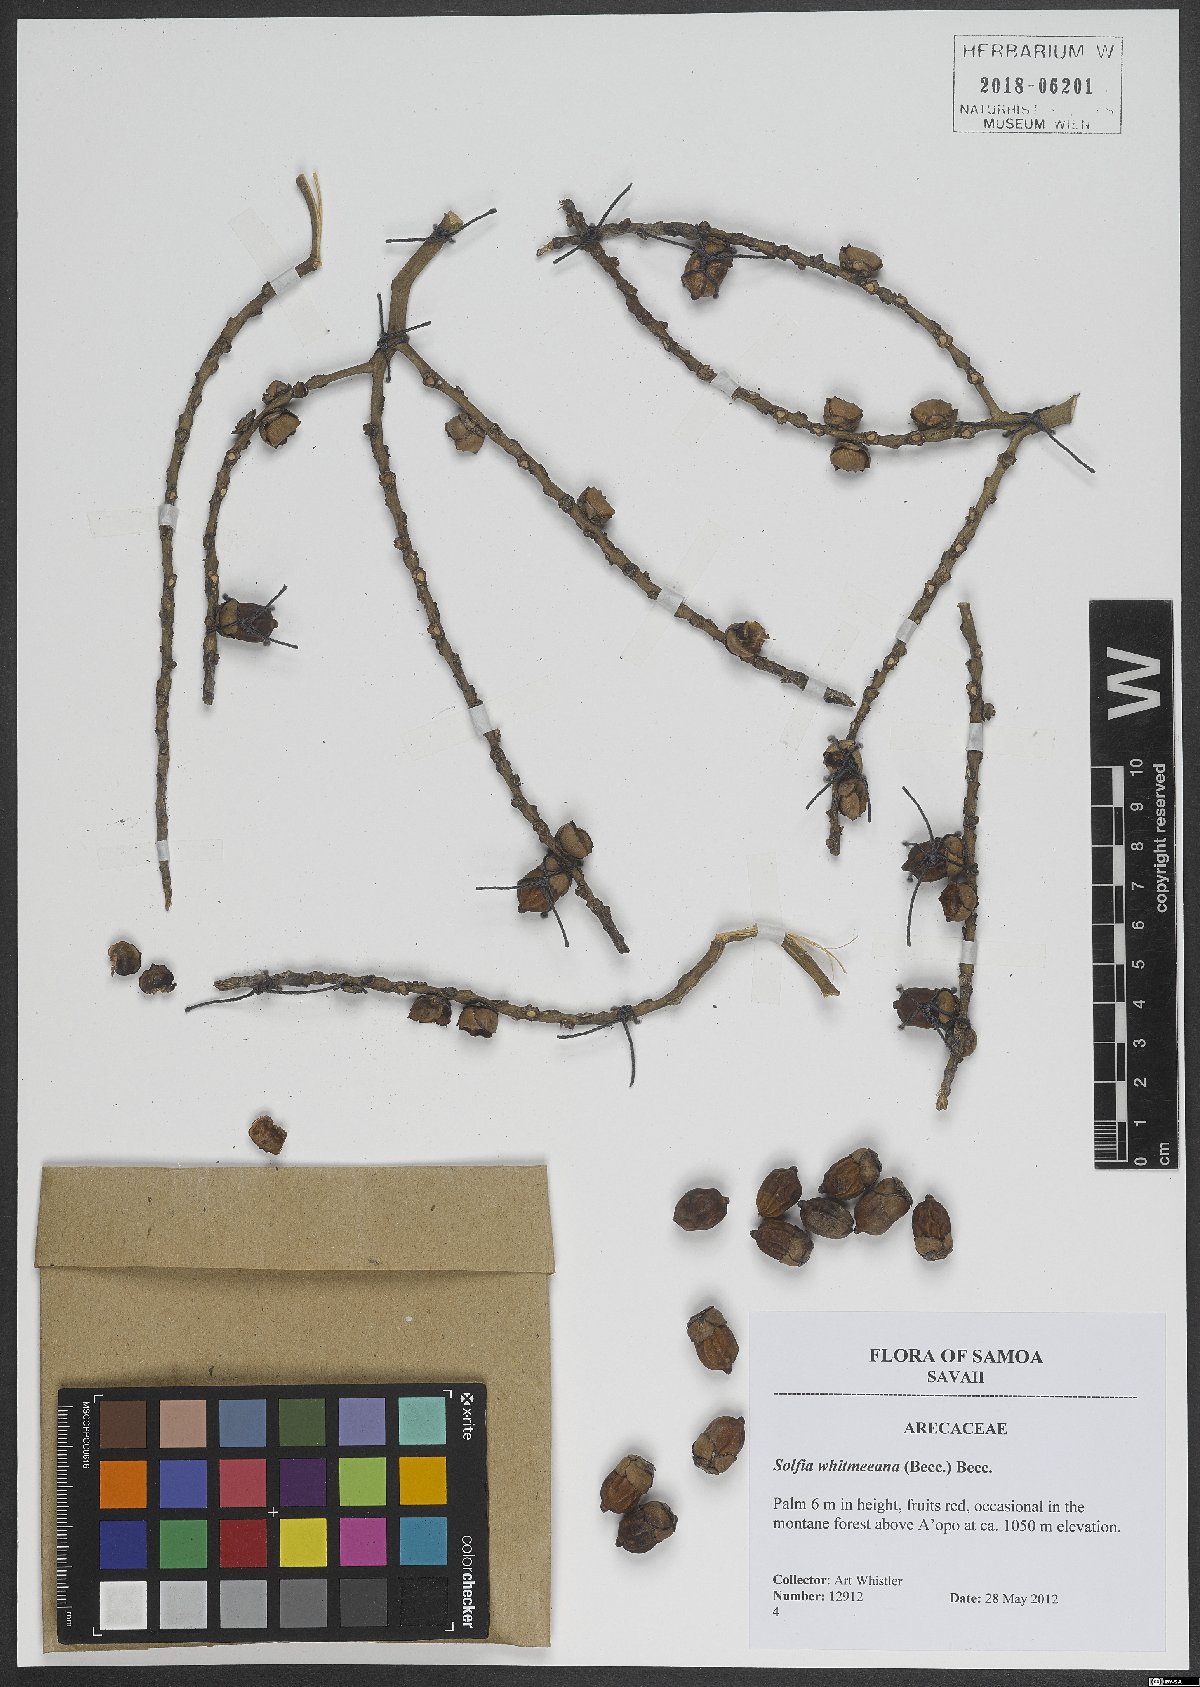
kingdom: Plantae
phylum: Tracheophyta
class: Liliopsida
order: Arecales
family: Arecaceae
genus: Drymophloeus
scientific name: Drymophloeus whitmeeanus
